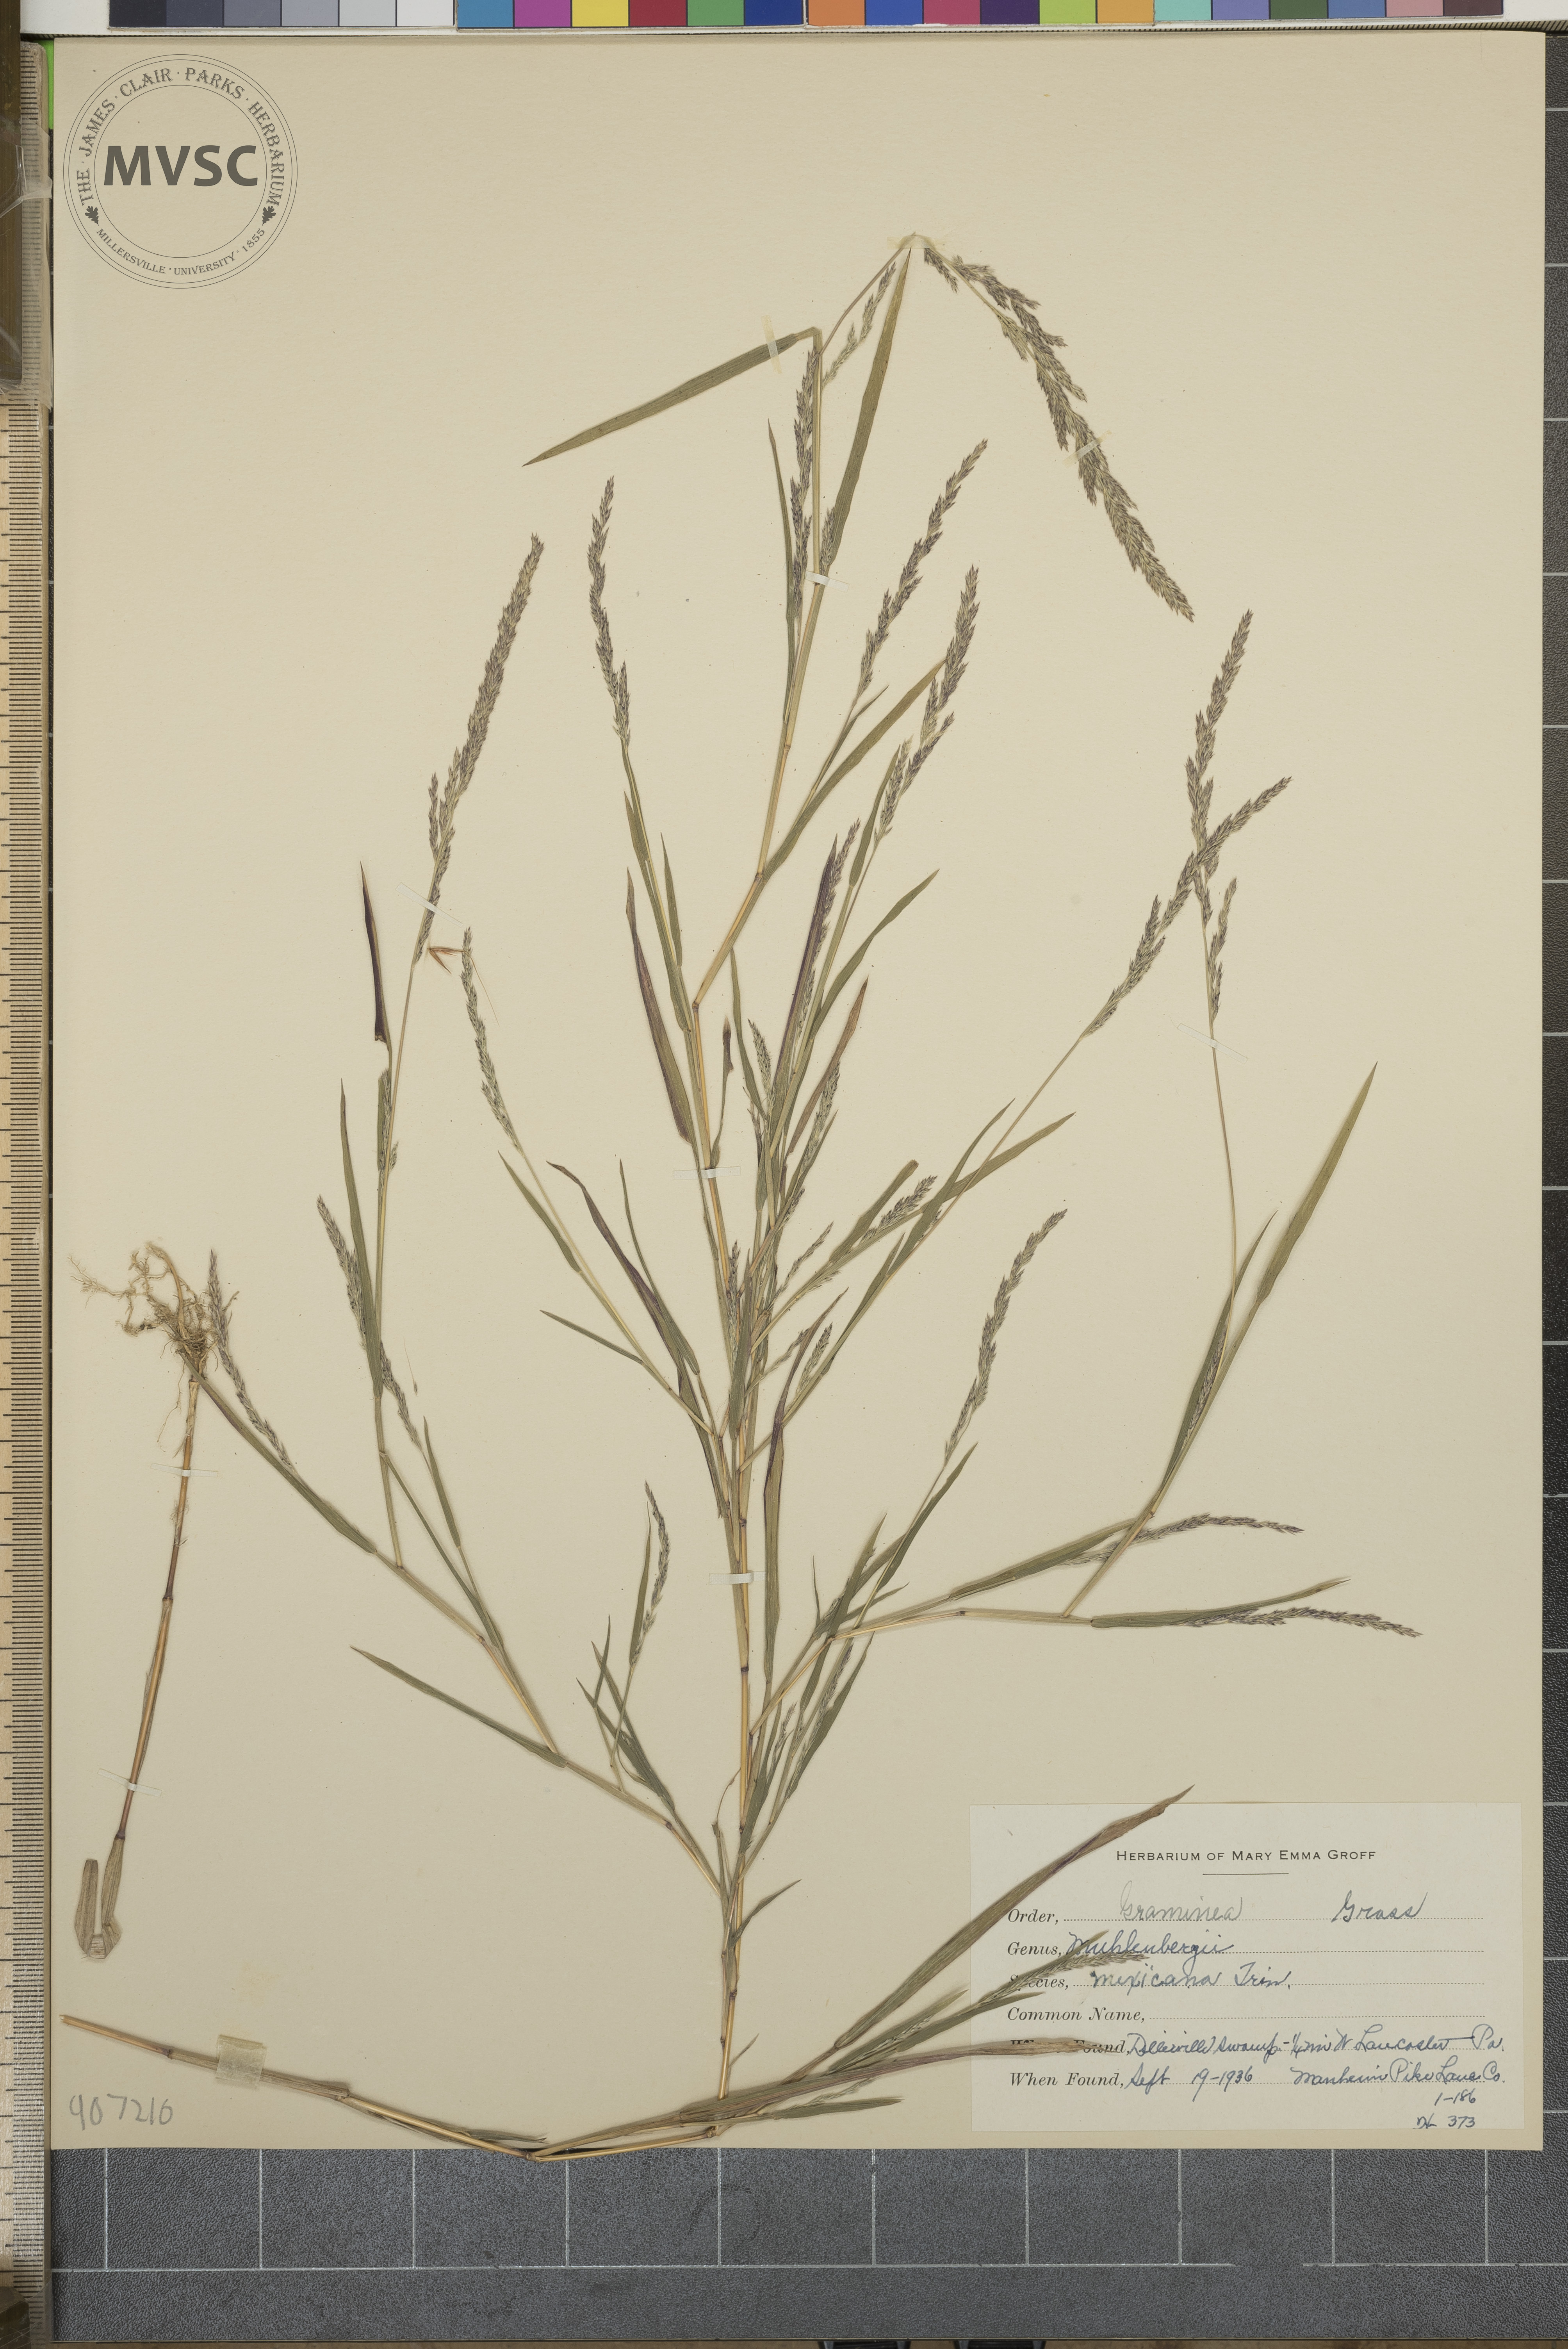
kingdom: Plantae
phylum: Tracheophyta
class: Liliopsida
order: Poales
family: Poaceae
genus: Muhlenbergia
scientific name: Muhlenbergia mexicana
